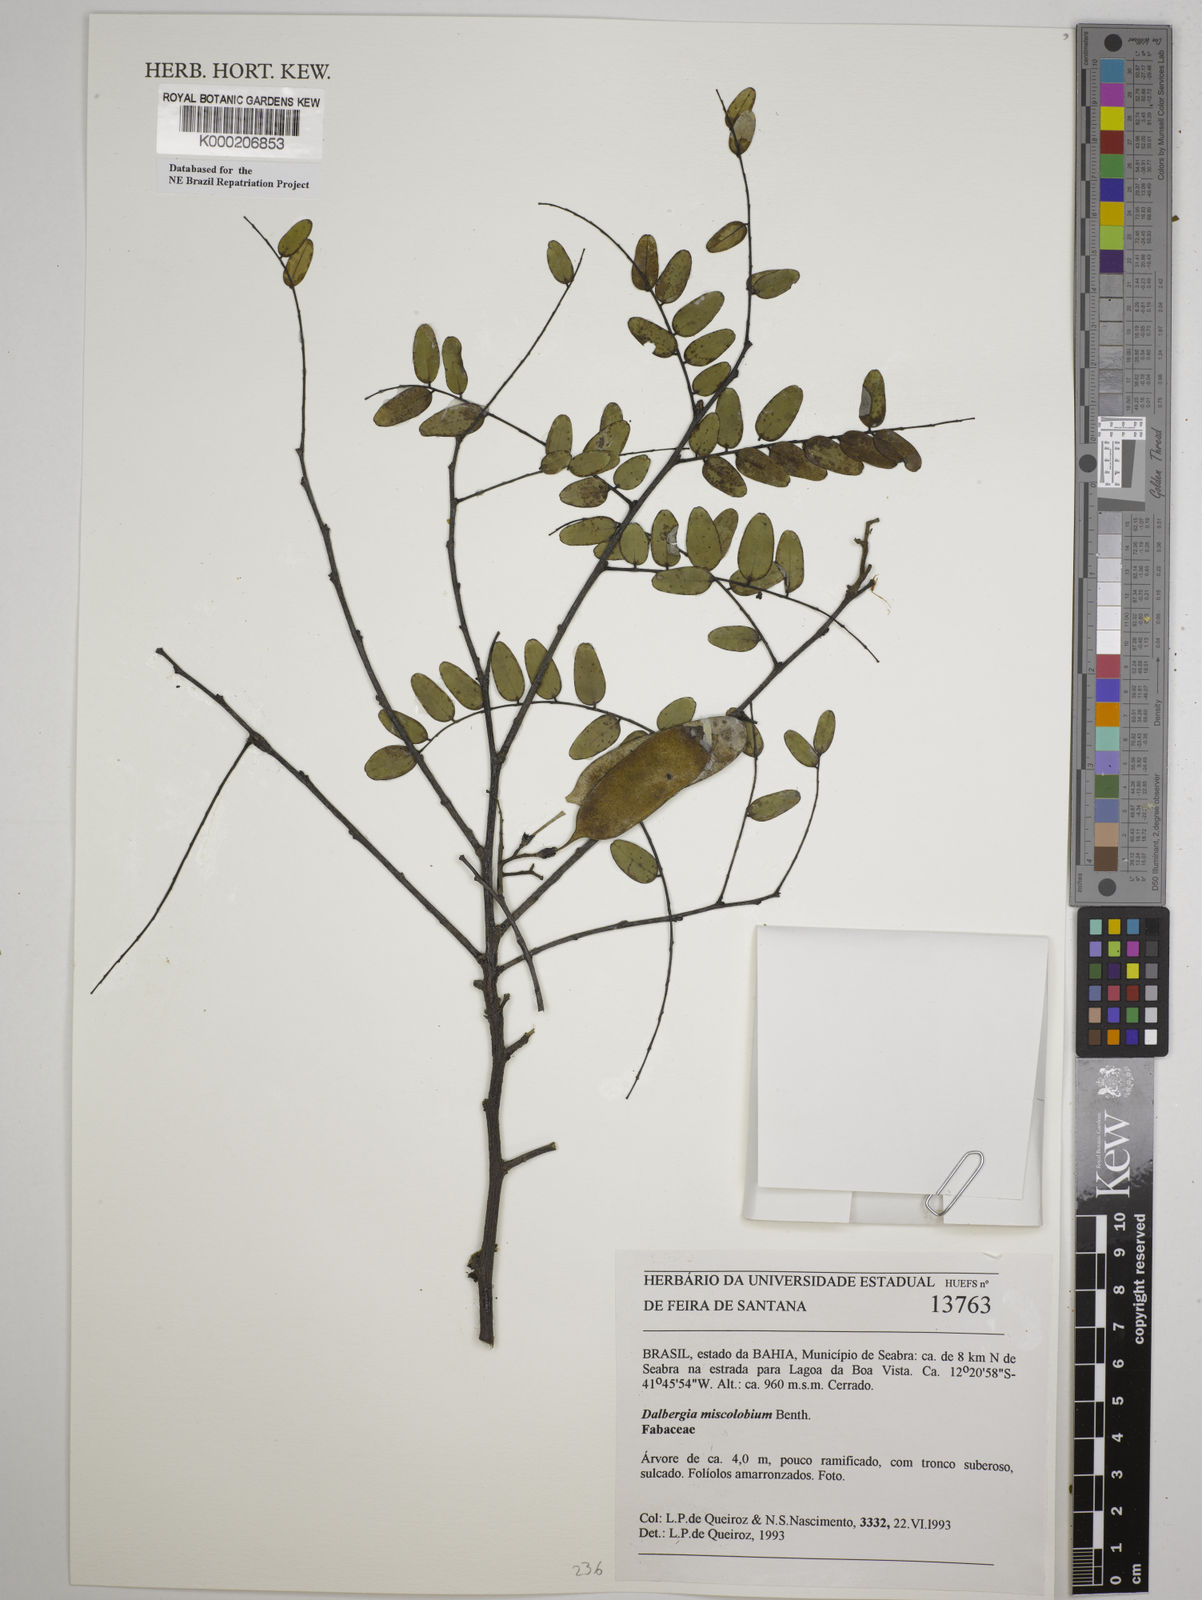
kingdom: Plantae
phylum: Tracheophyta
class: Magnoliopsida
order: Fabales
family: Fabaceae
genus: Dalbergia
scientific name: Dalbergia miscolobium
